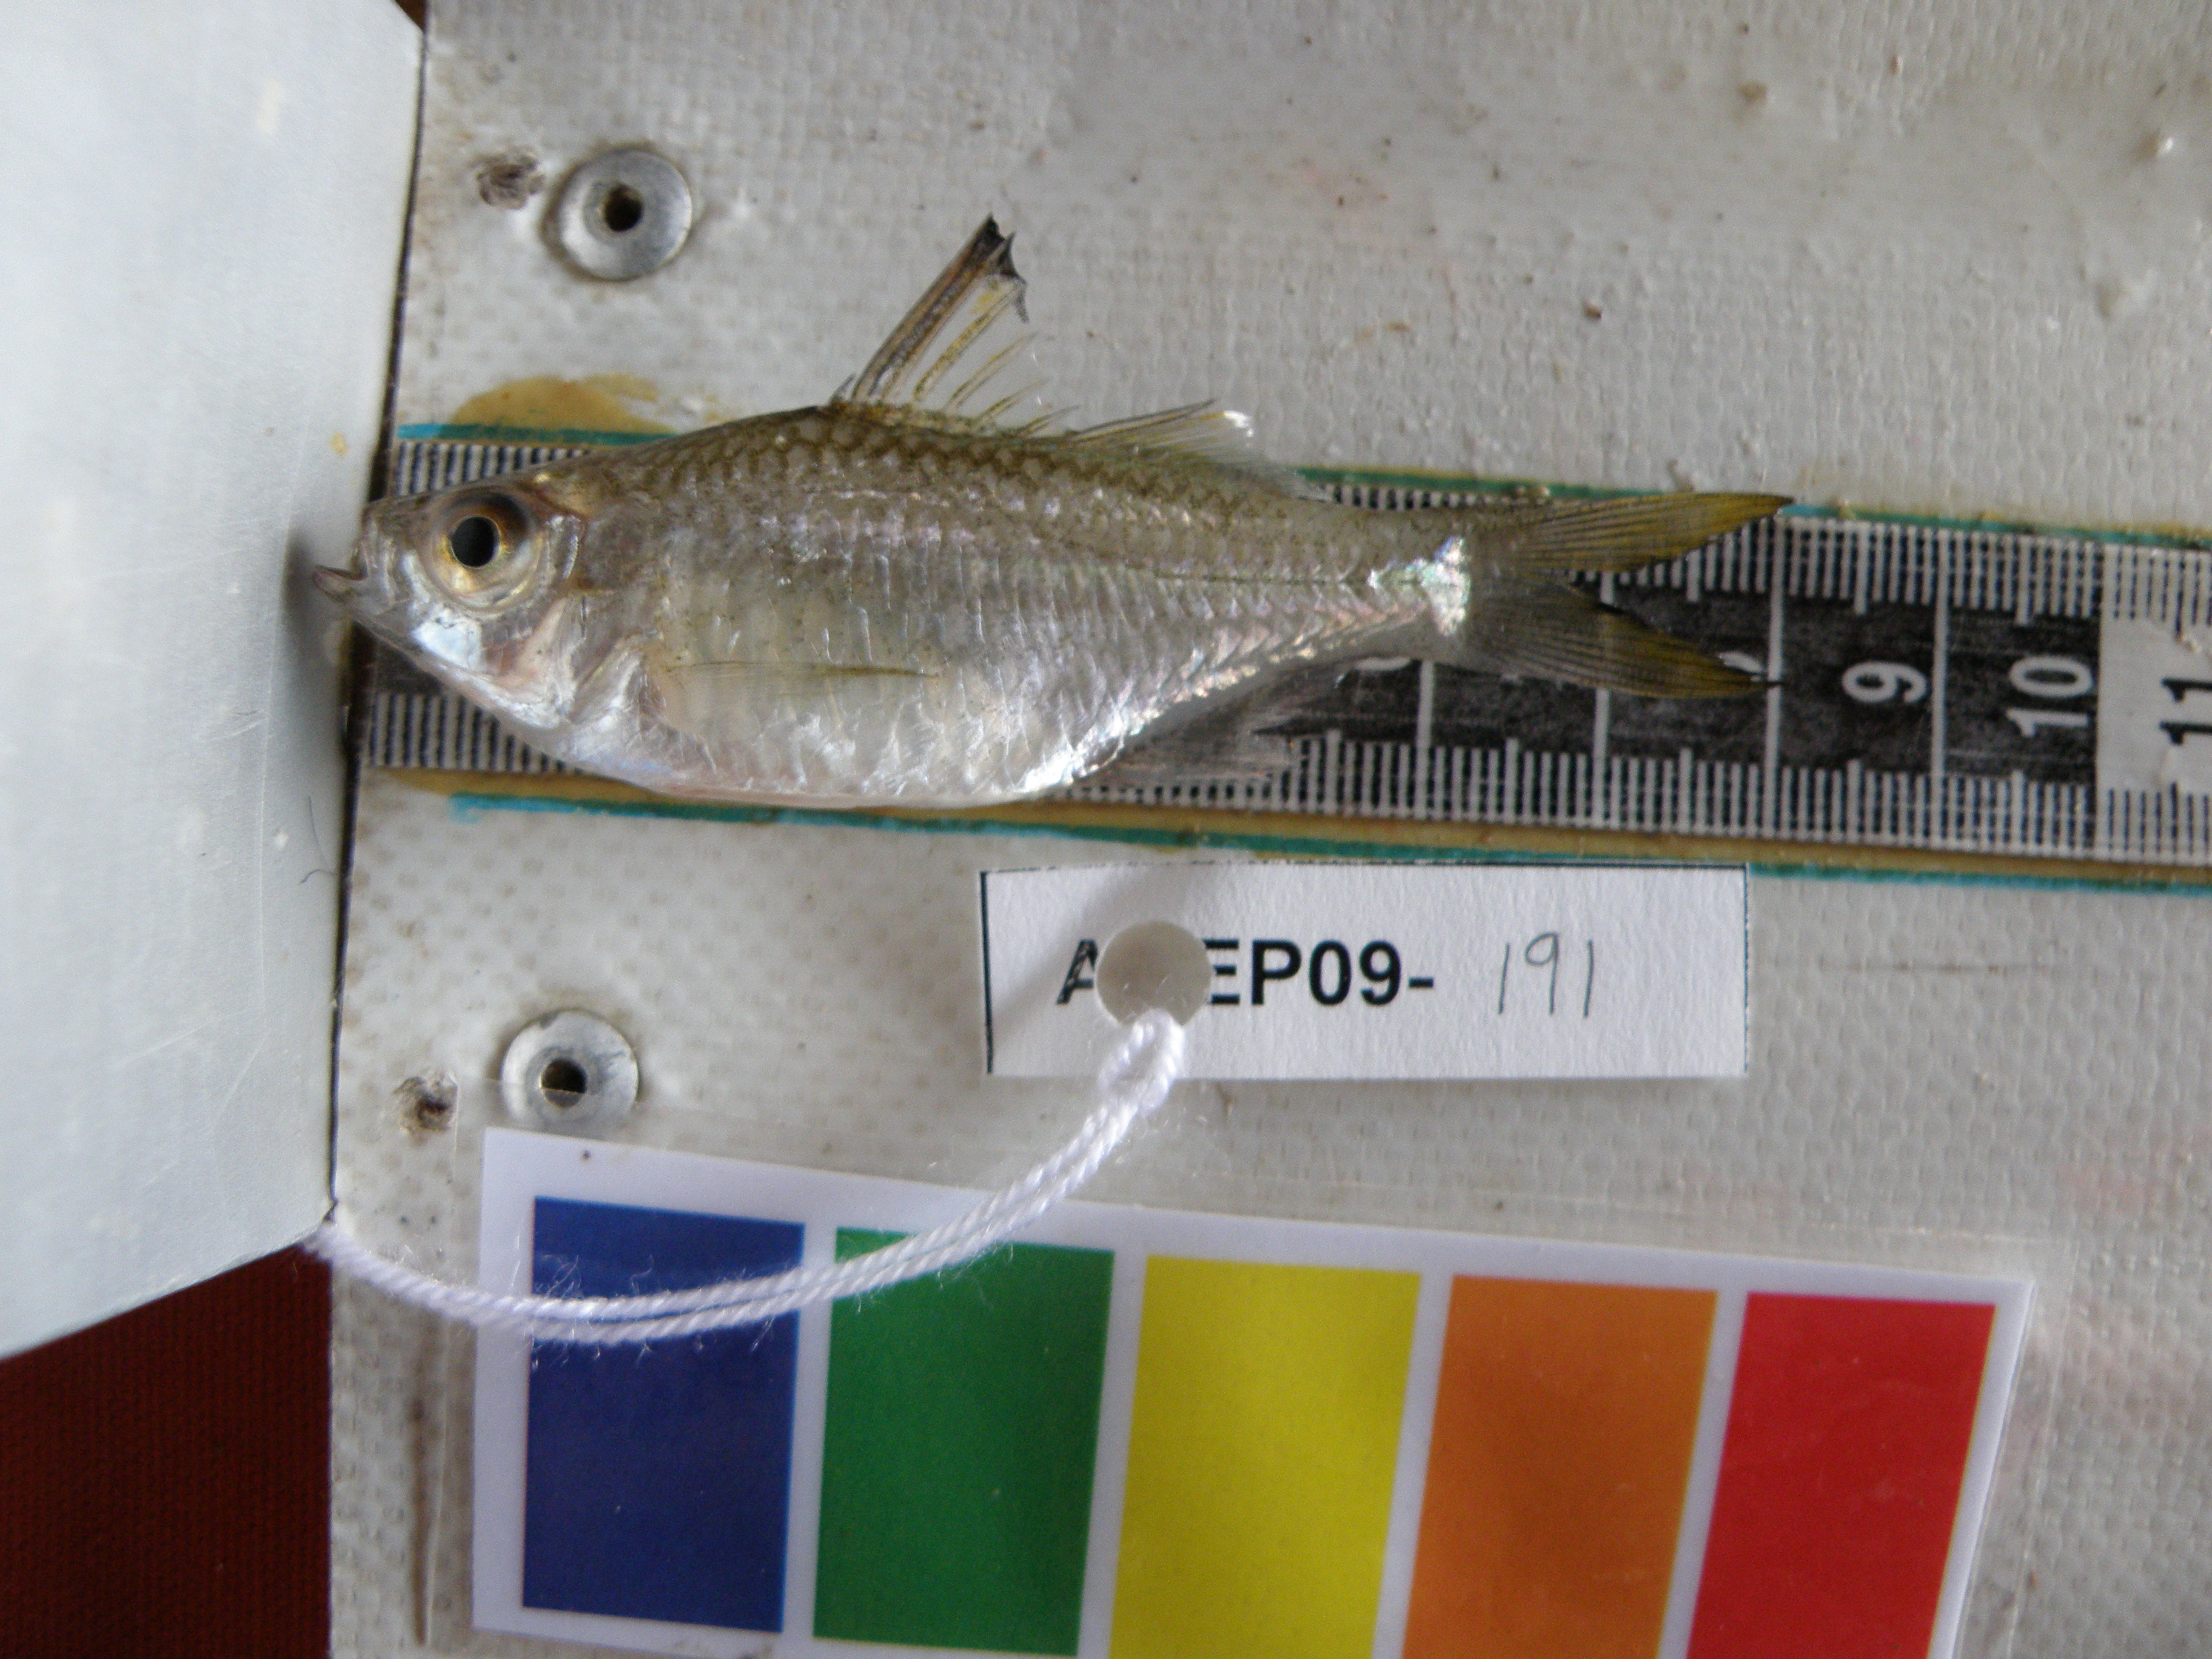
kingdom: Animalia
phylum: Chordata
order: Perciformes
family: Ambassidae
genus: Ambassis
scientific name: Ambassis natalensis
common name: Slender glassy
